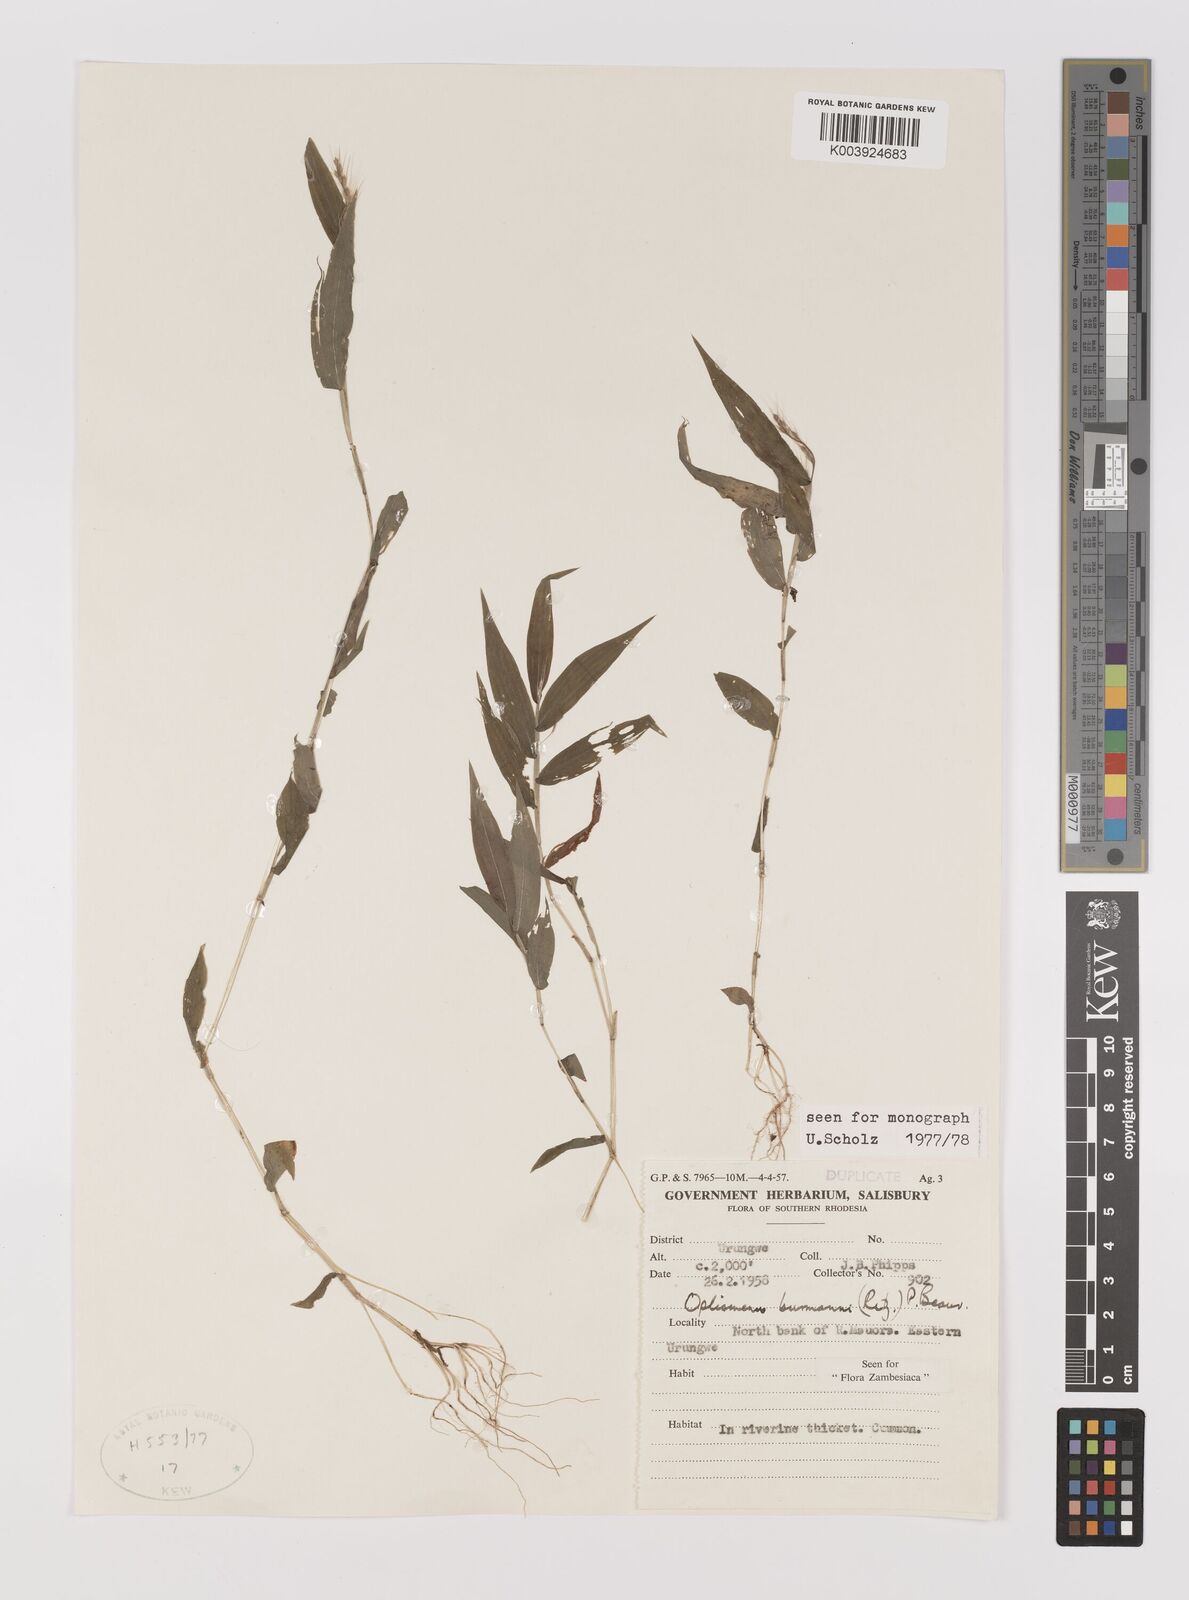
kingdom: Plantae
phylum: Tracheophyta
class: Liliopsida
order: Poales
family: Poaceae
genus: Oplismenus
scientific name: Oplismenus burmanni
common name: Burmann's basketgrass
